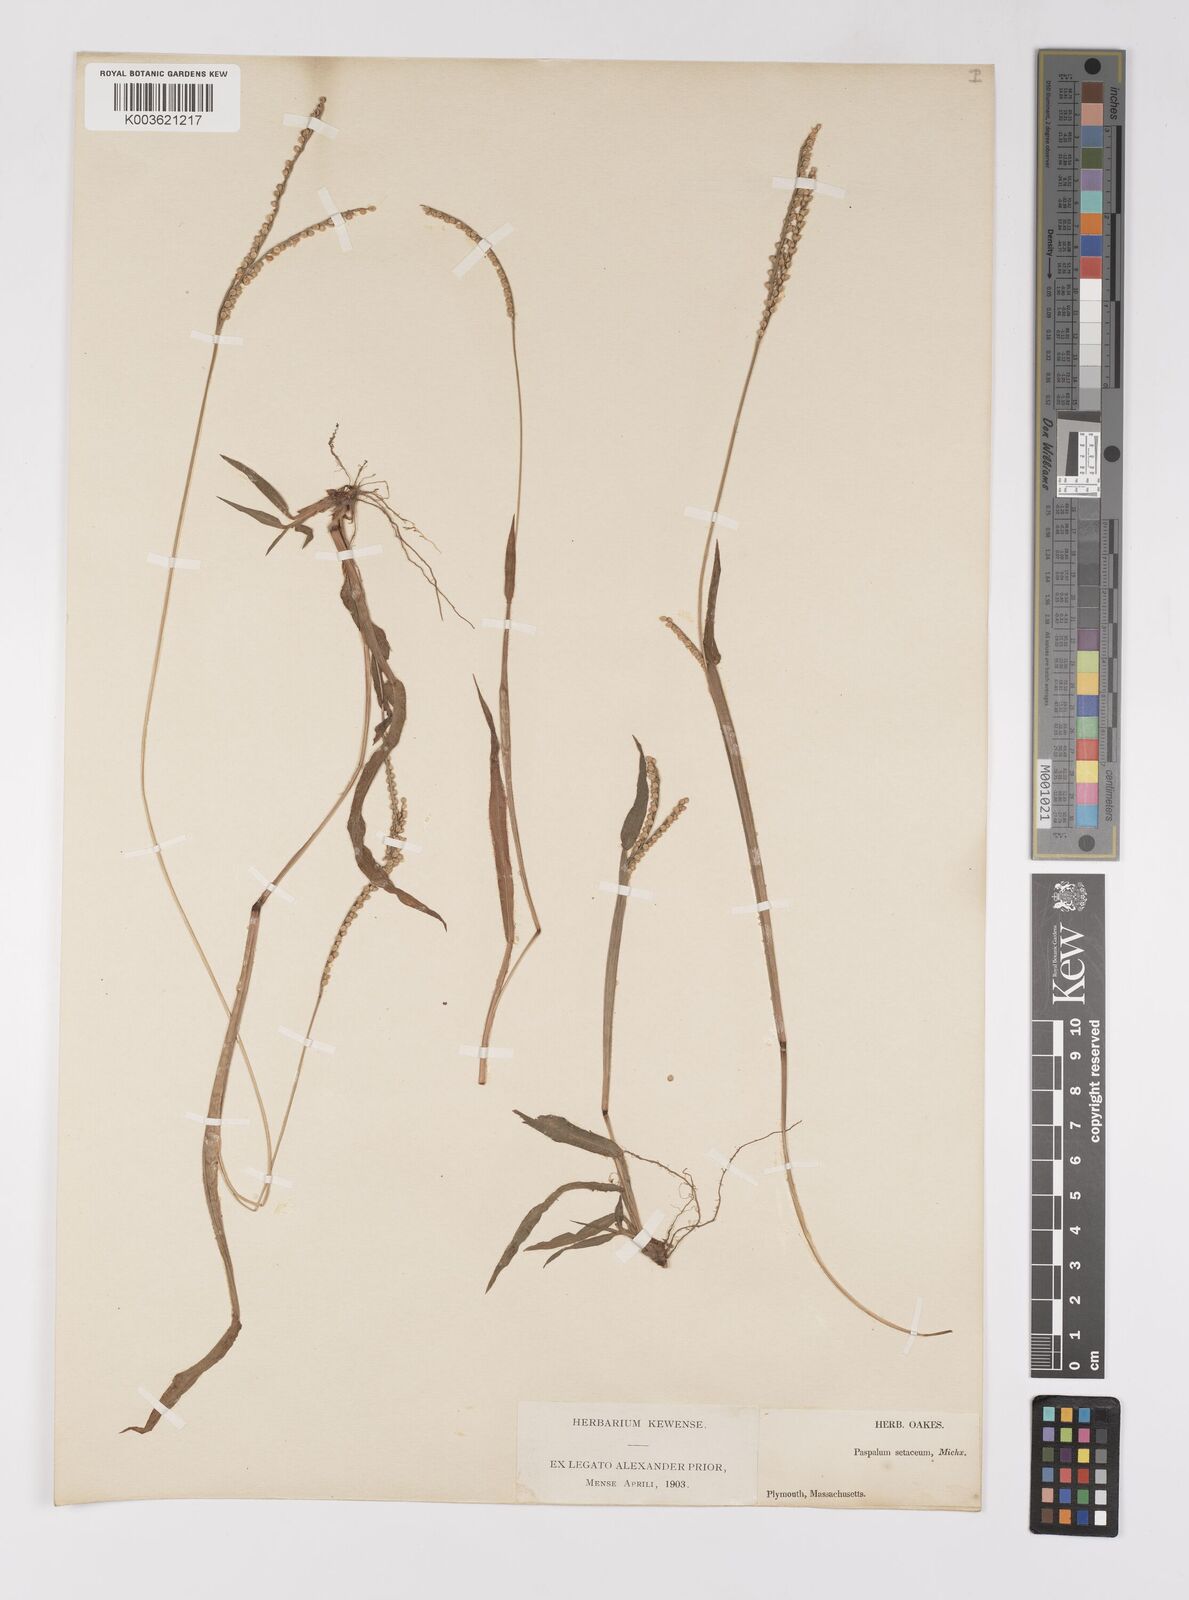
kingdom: Plantae
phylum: Tracheophyta
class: Liliopsida
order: Poales
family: Poaceae
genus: Paspalum
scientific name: Paspalum setaceum
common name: Slender paspalum
